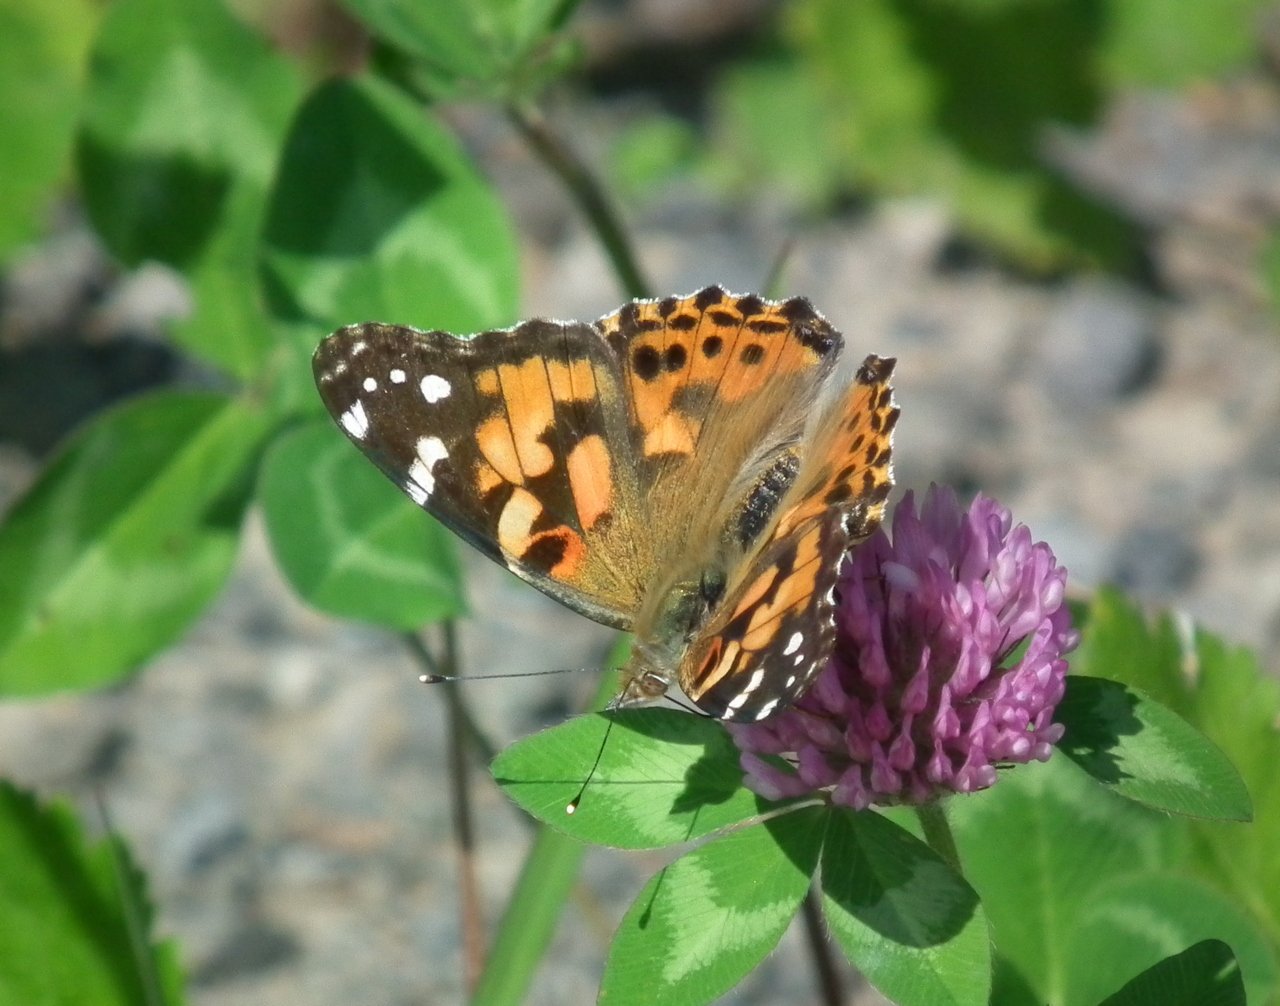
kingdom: Animalia
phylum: Arthropoda
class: Insecta
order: Lepidoptera
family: Nymphalidae
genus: Vanessa
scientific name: Vanessa cardui
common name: Painted Lady
